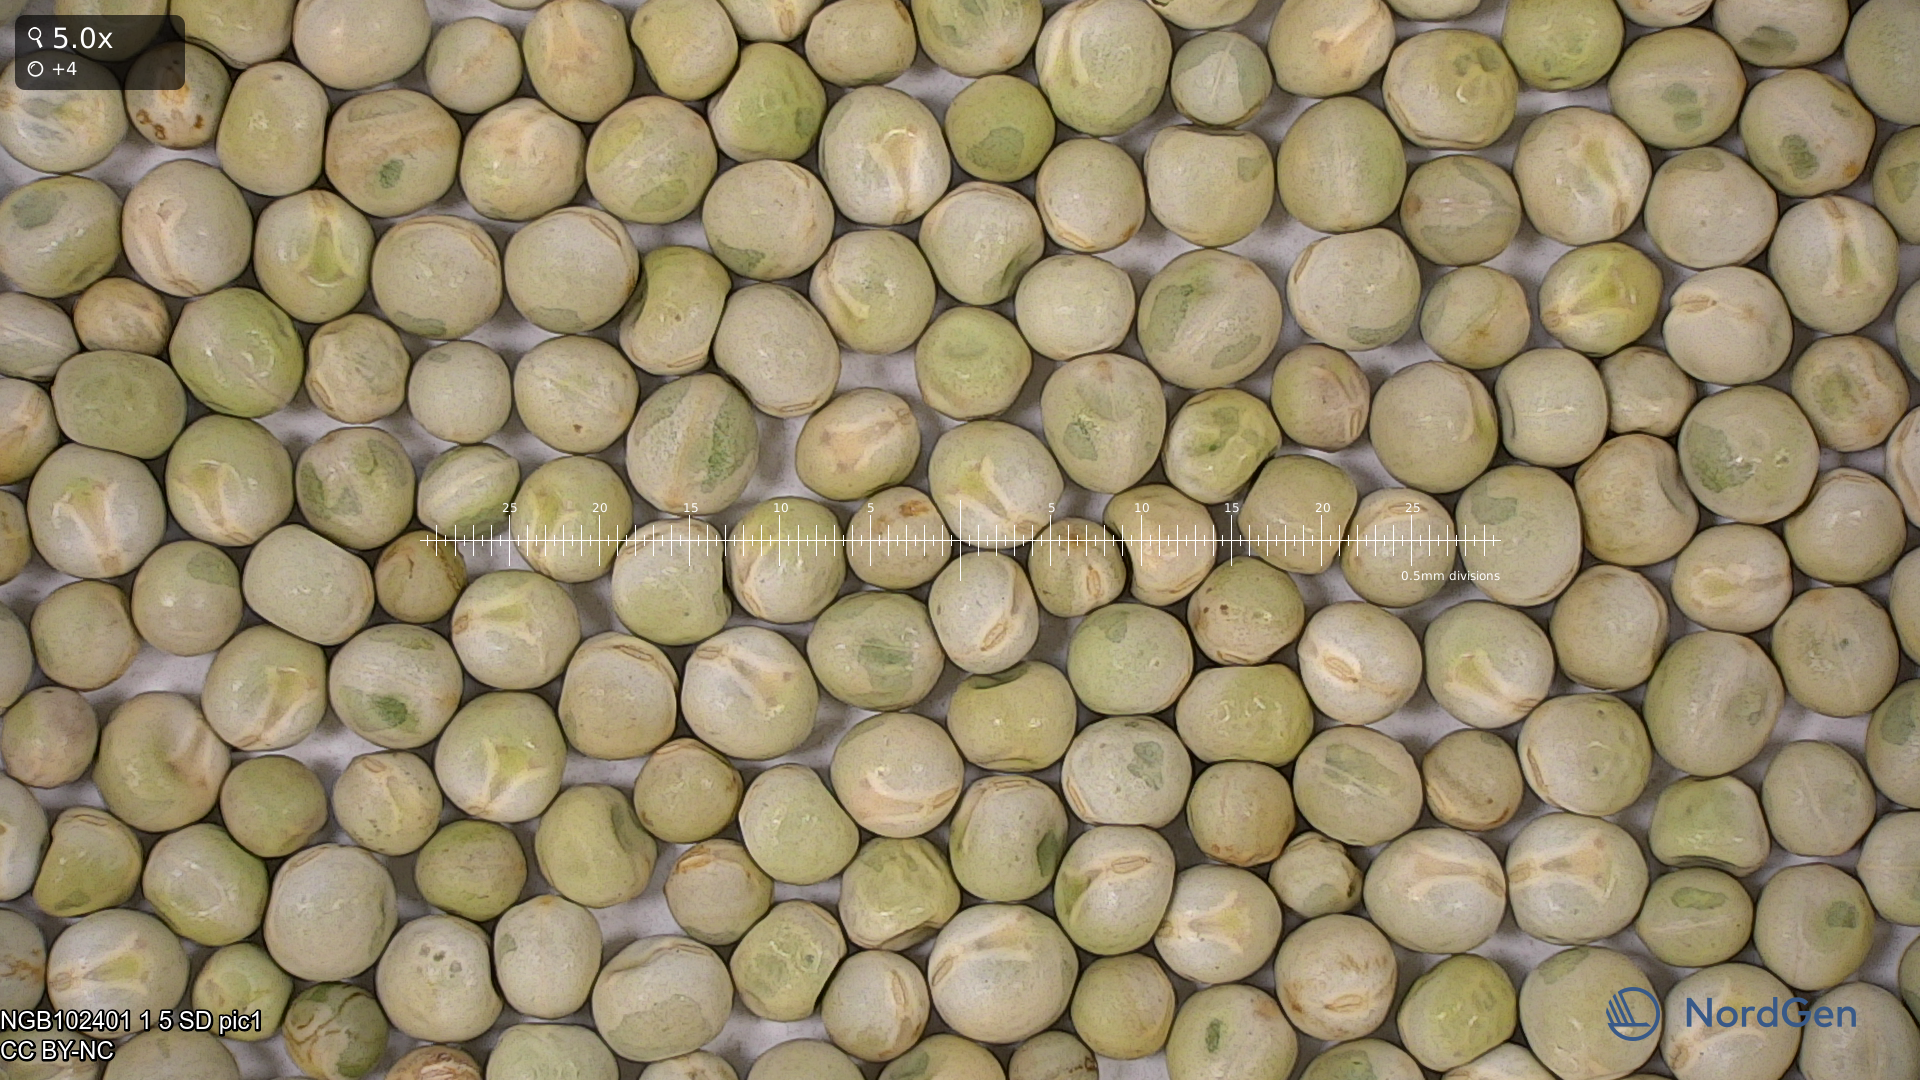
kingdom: Plantae
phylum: Tracheophyta
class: Magnoliopsida
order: Fabales
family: Fabaceae
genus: Lathyrus
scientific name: Lathyrus oleraceus
